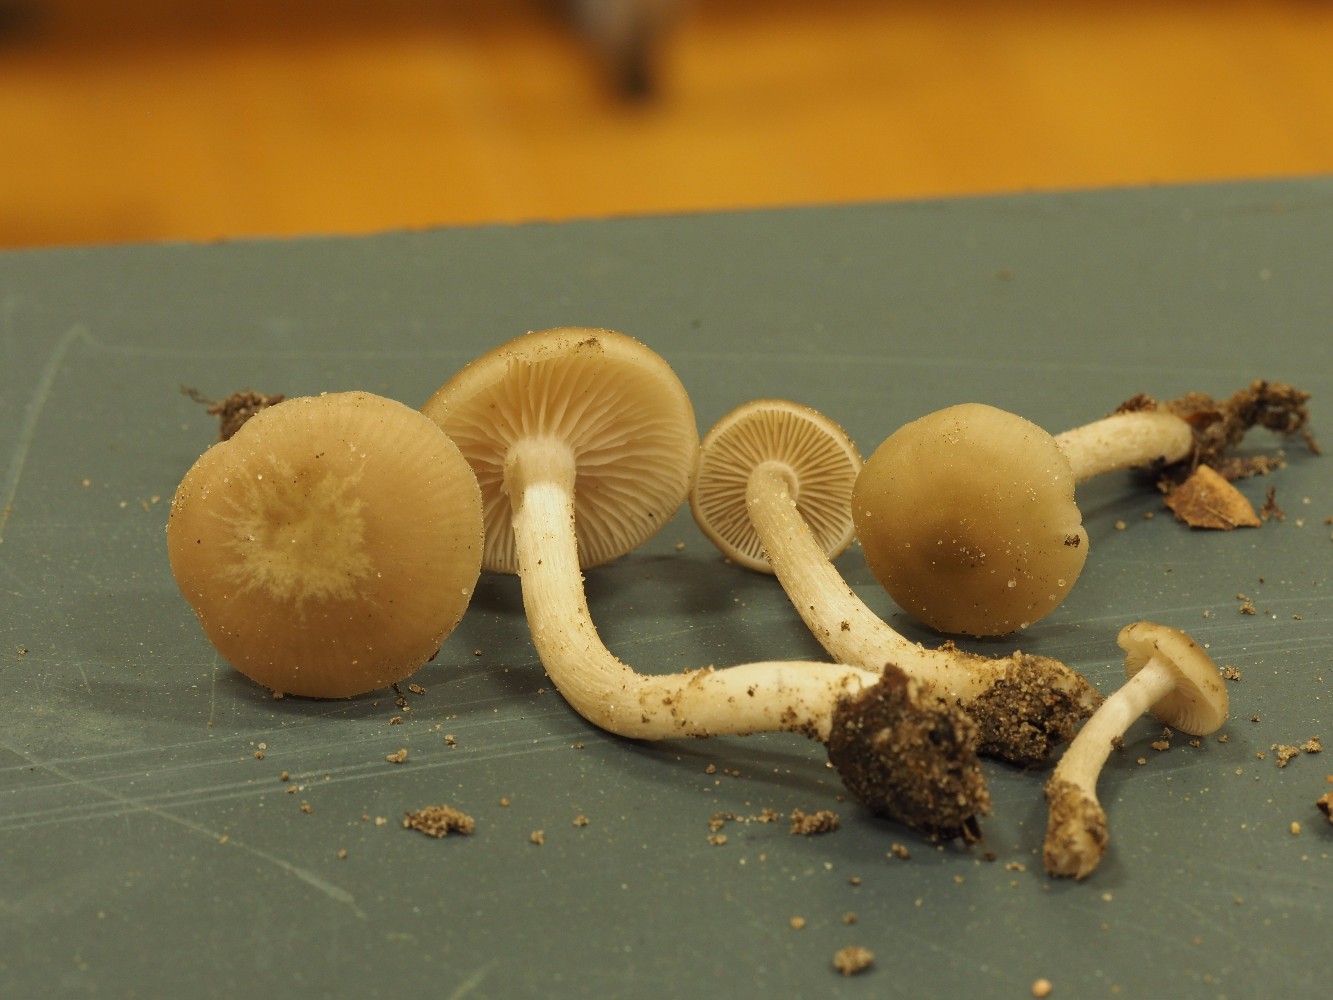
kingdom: Fungi
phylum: Basidiomycota
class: Agaricomycetes
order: Agaricales
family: Entolomataceae
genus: Entoloma
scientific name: Entoloma
